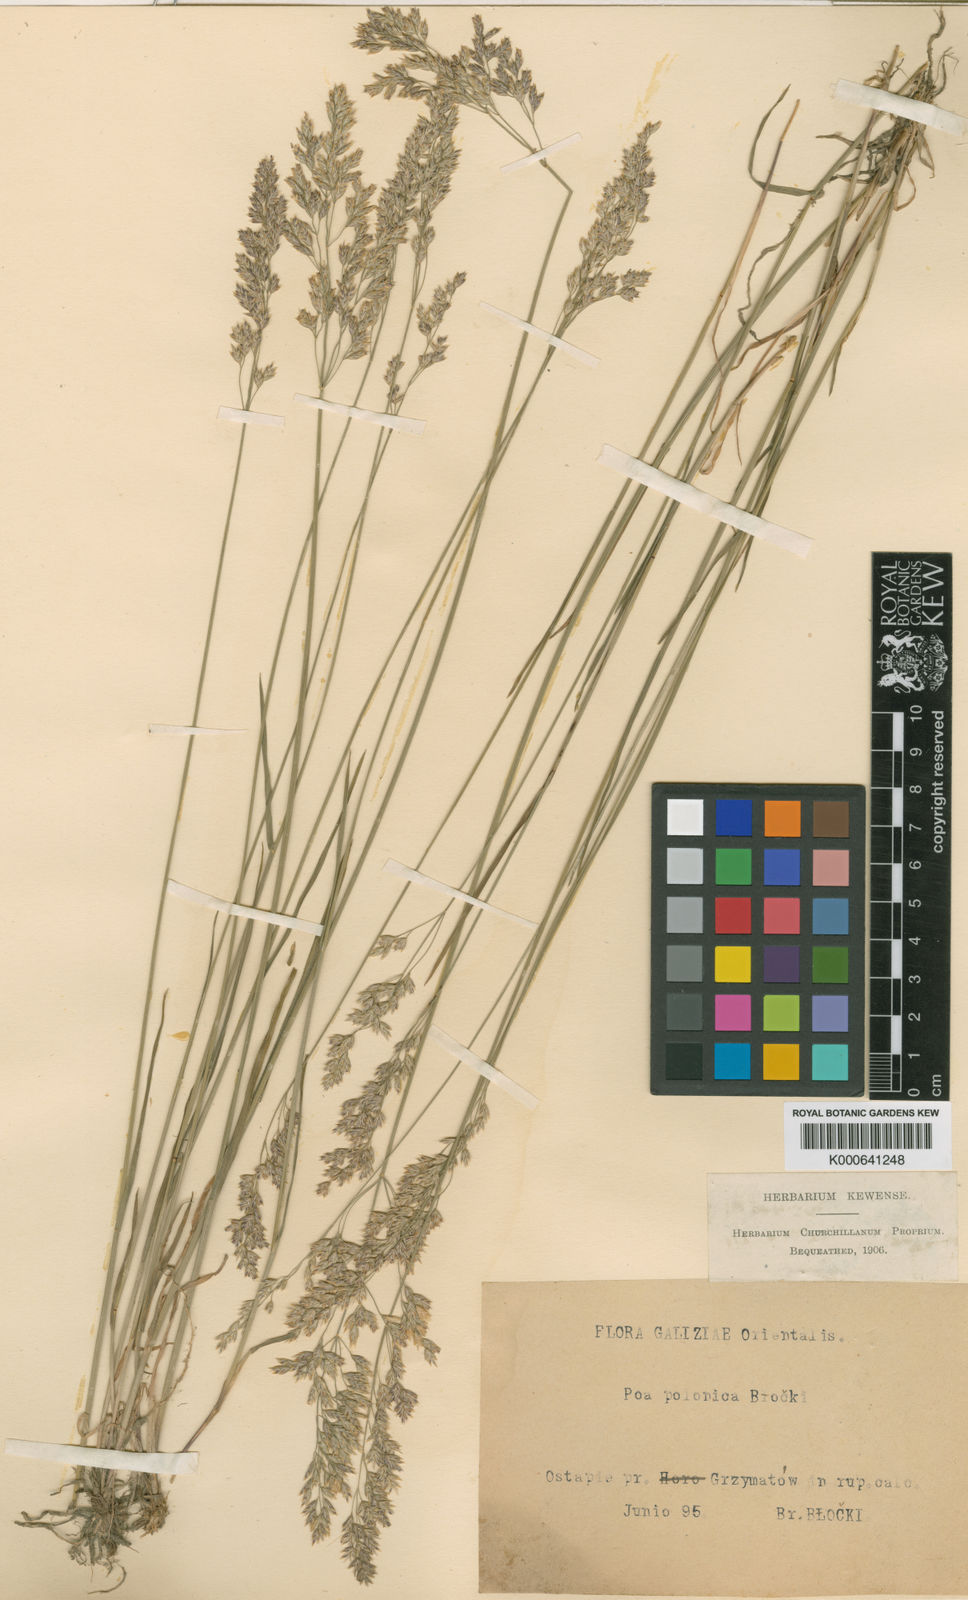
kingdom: Plantae
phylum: Tracheophyta
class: Liliopsida
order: Poales
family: Poaceae
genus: Poa
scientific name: Poa versicolor
